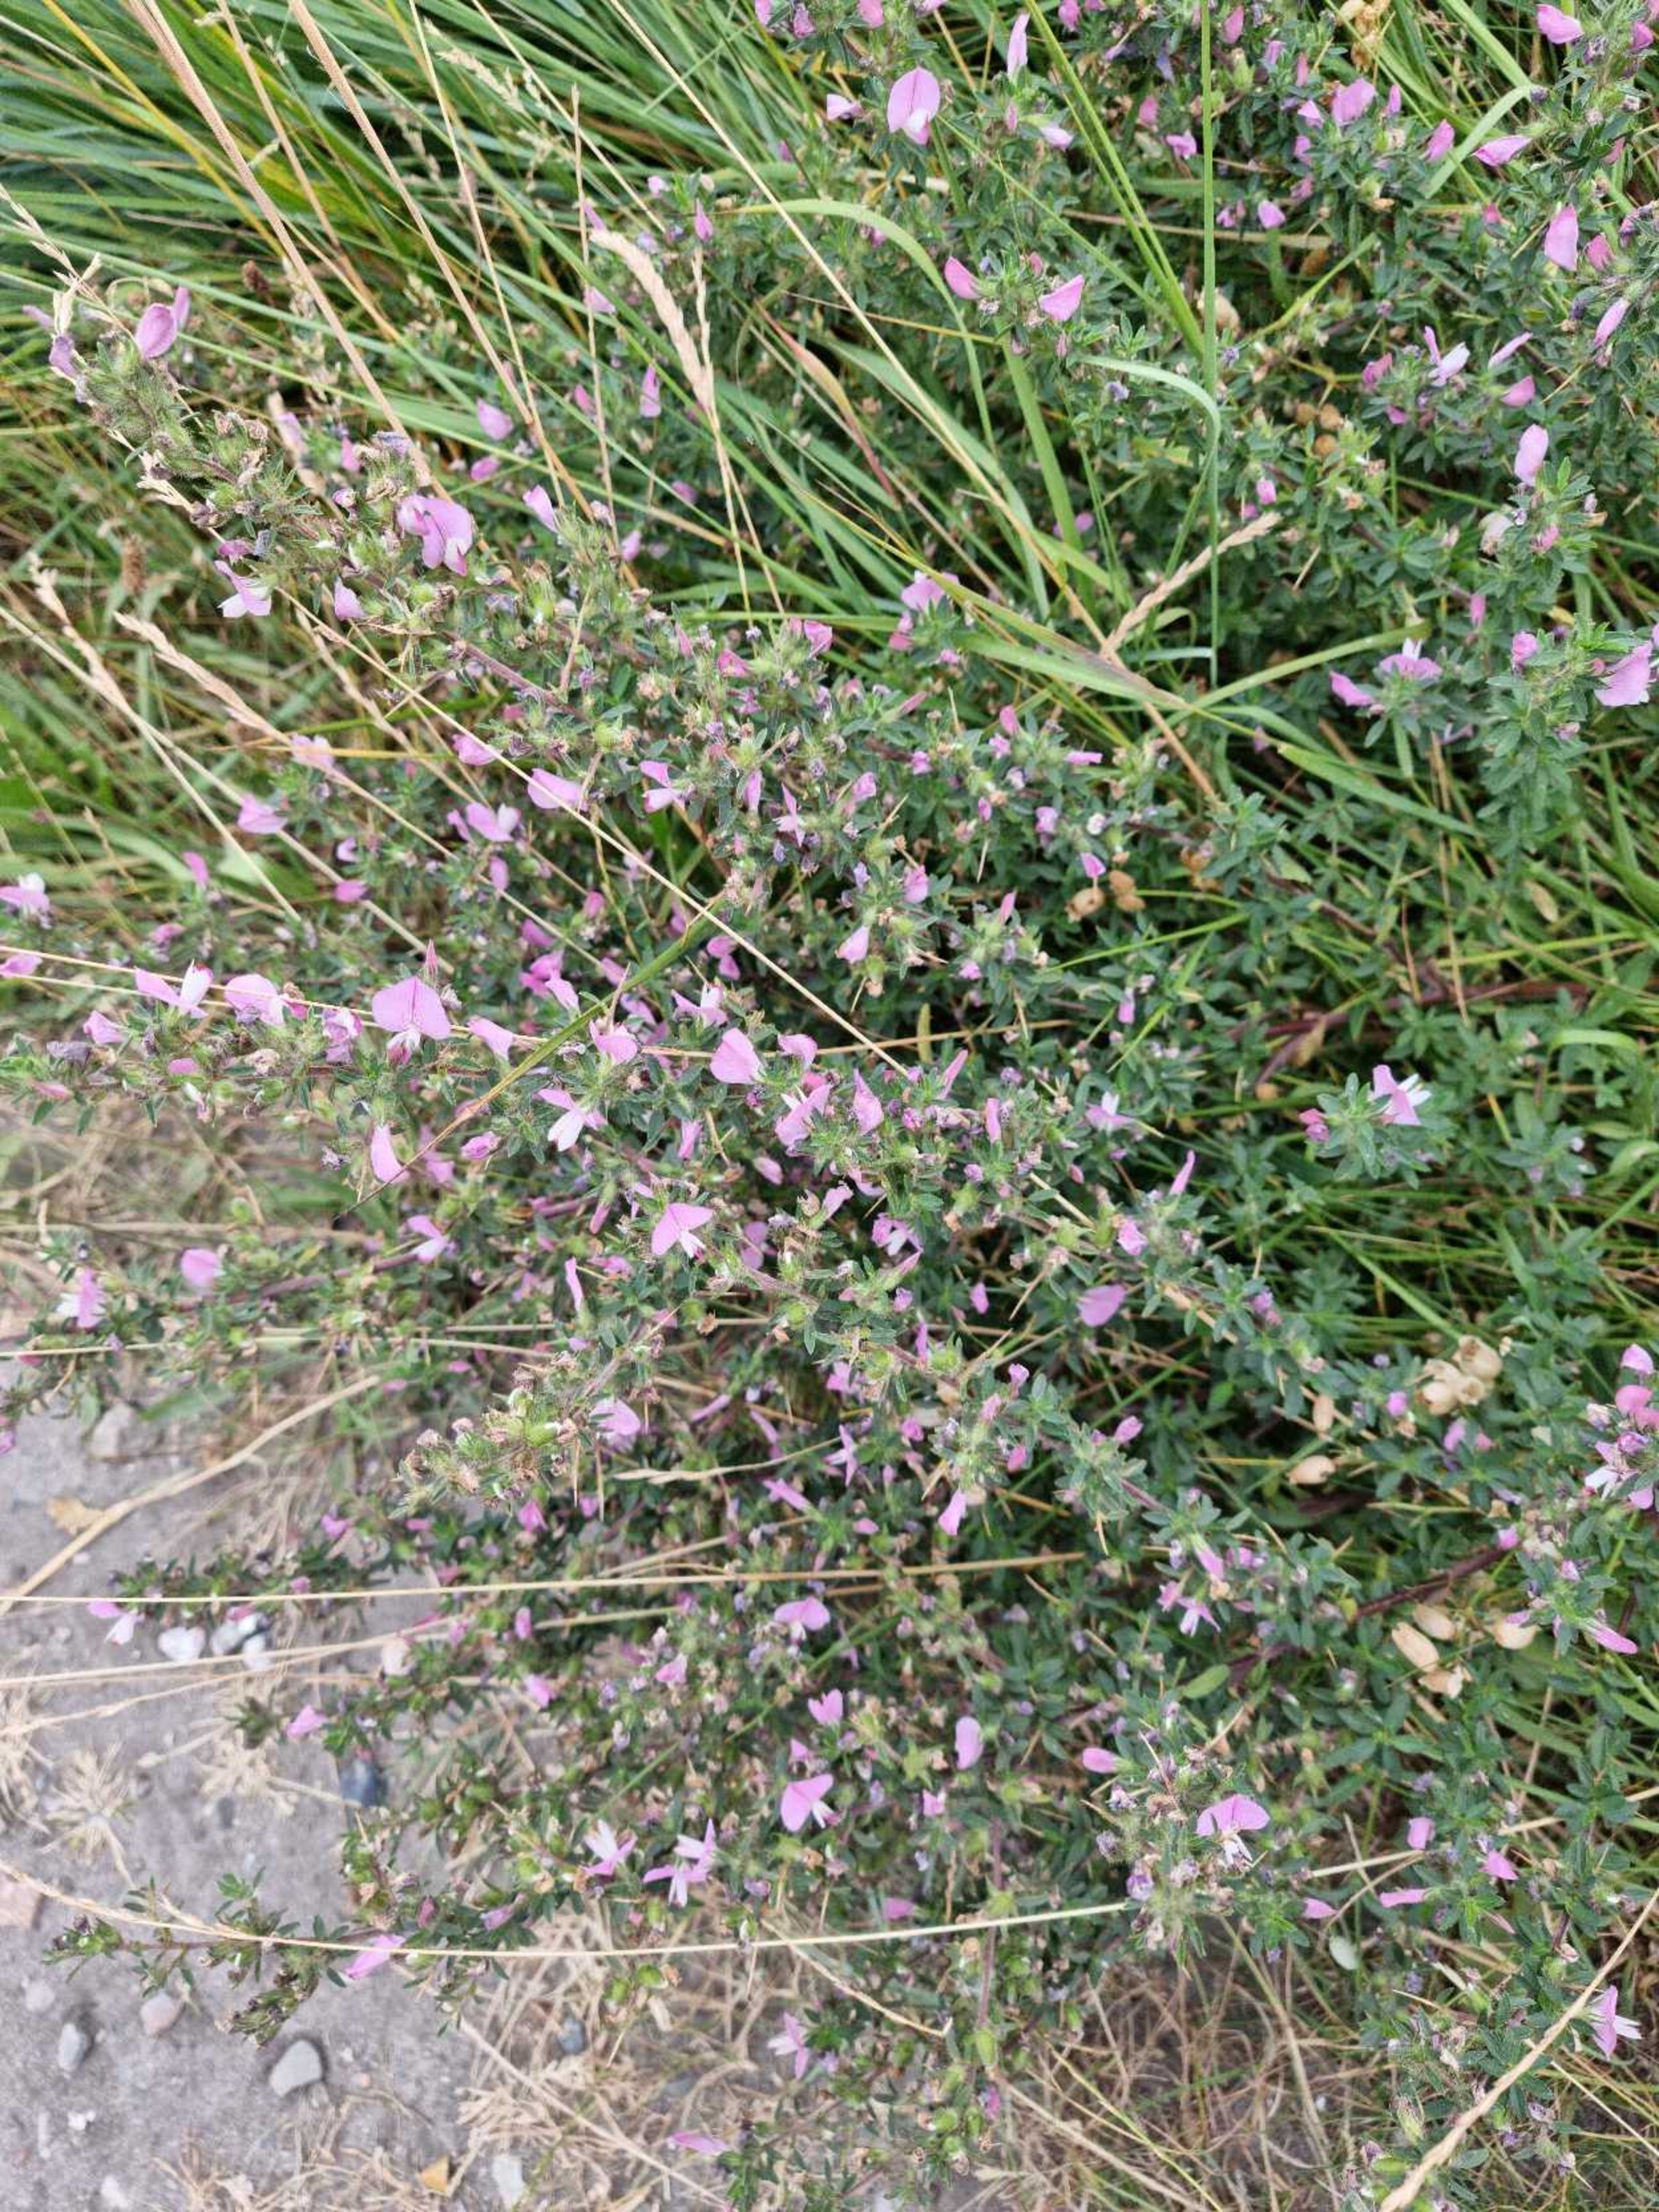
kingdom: Plantae
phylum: Tracheophyta
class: Magnoliopsida
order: Fabales
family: Fabaceae
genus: Ononis
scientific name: Ononis spinosa
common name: Strand-krageklo
